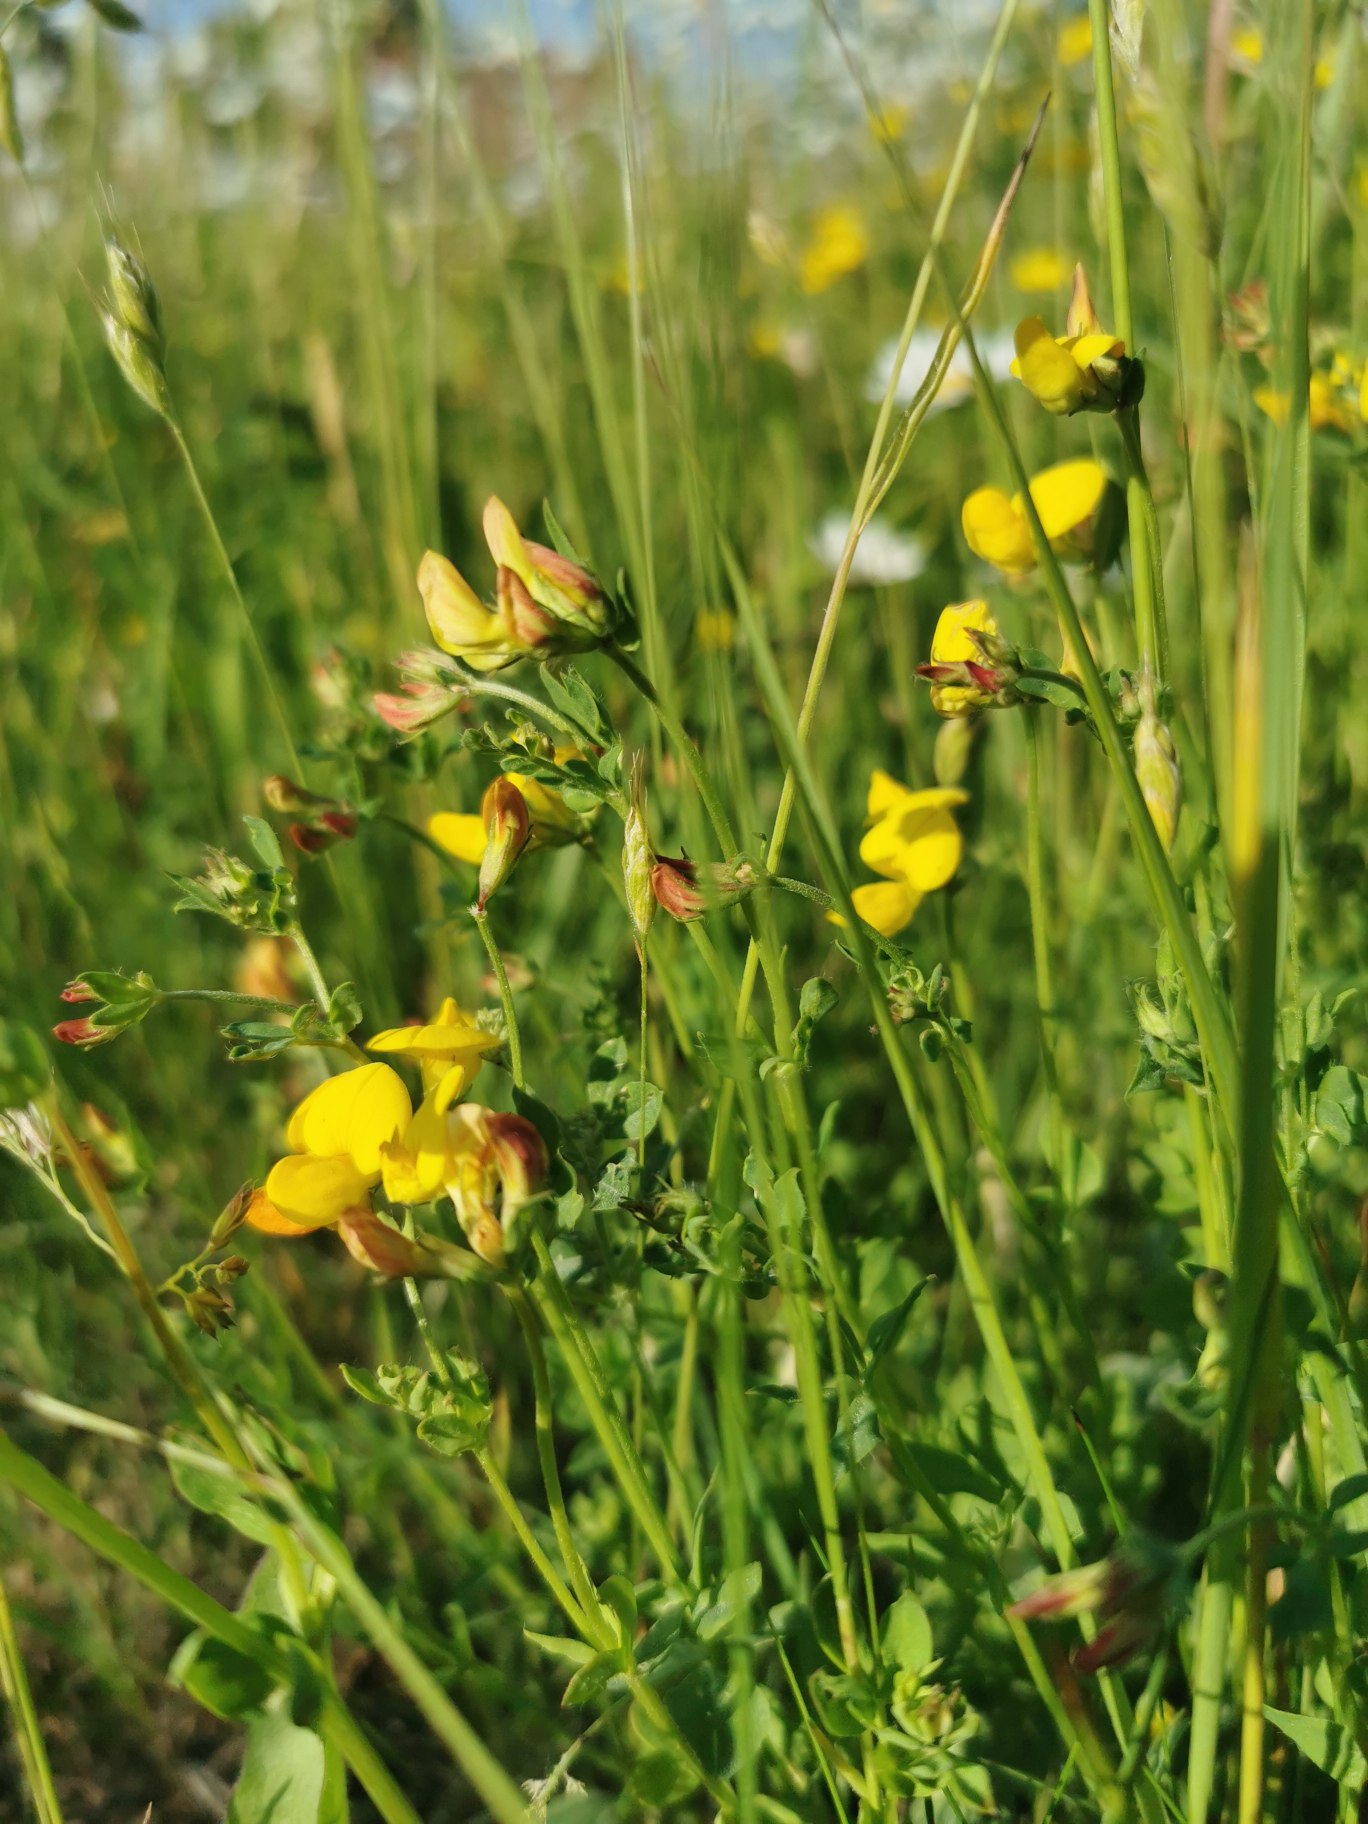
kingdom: Plantae
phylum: Tracheophyta
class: Magnoliopsida
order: Fabales
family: Fabaceae
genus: Lotus
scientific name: Lotus corniculatus
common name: Almindelig kællingetand
